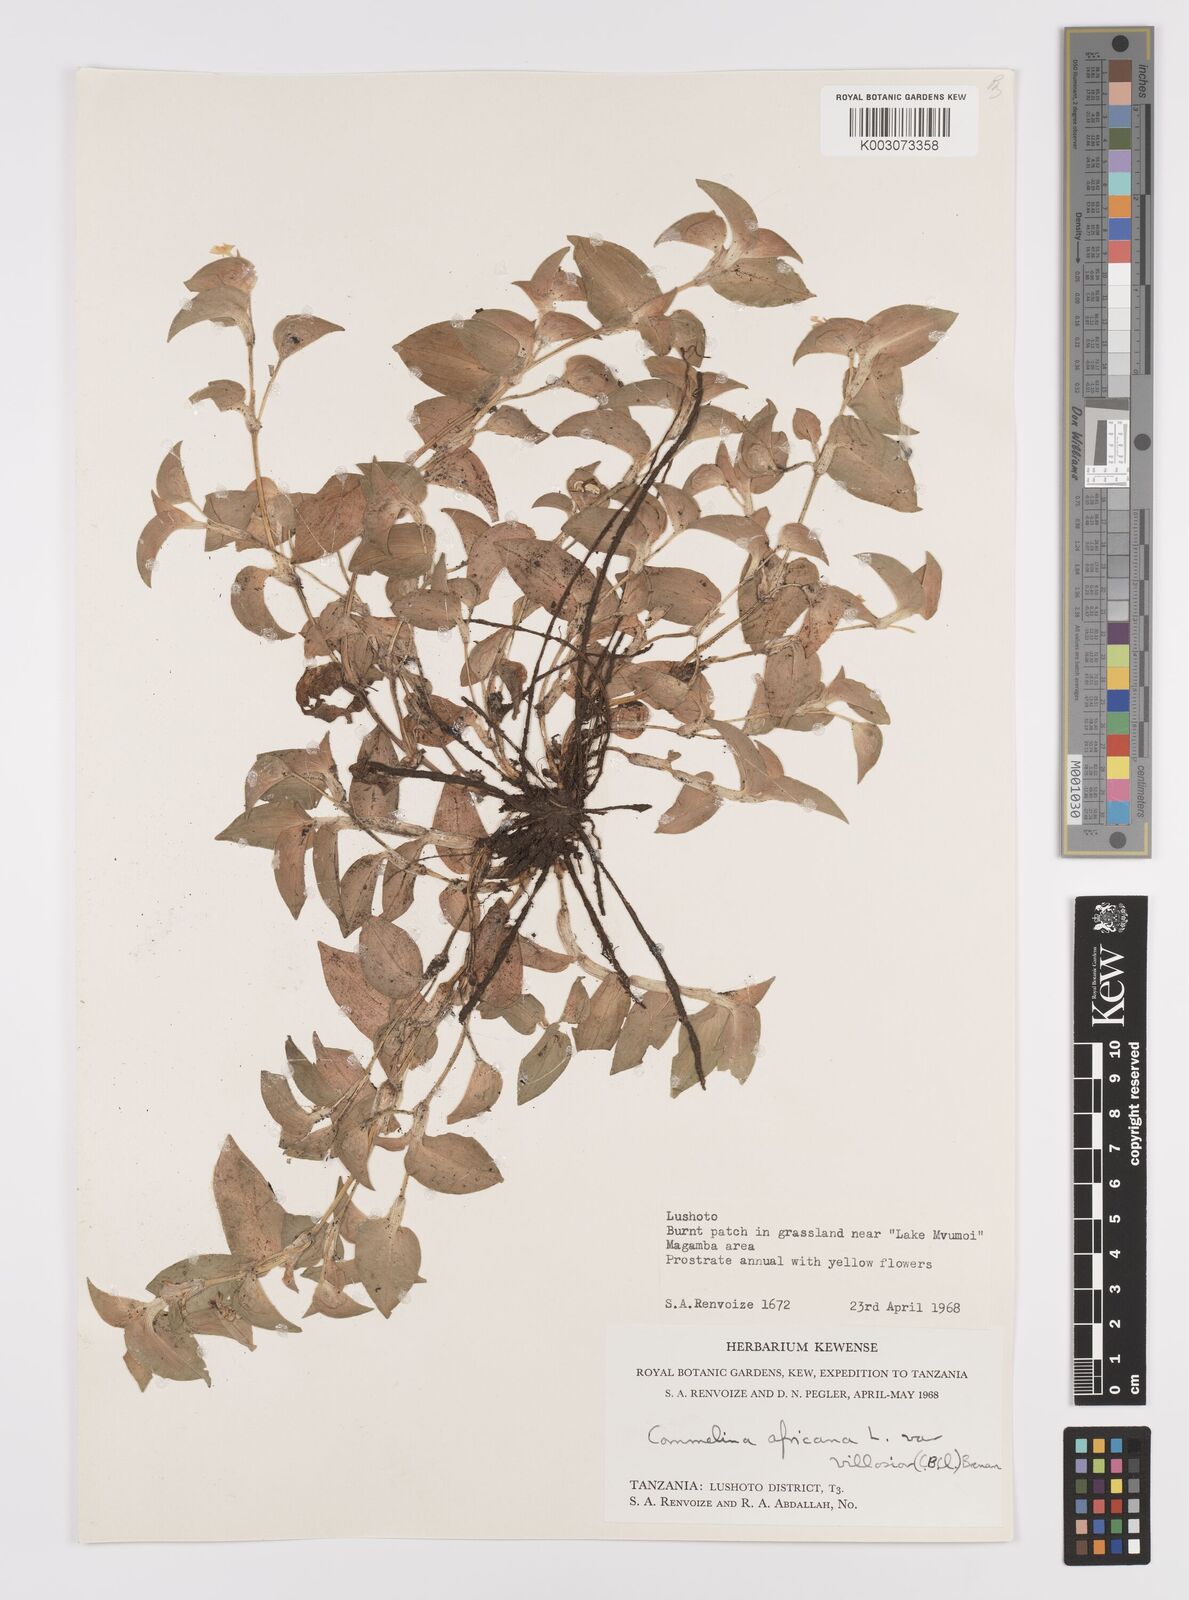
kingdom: Plantae
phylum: Tracheophyta
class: Liliopsida
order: Commelinales
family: Commelinaceae
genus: Commelina
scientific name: Commelina africana
